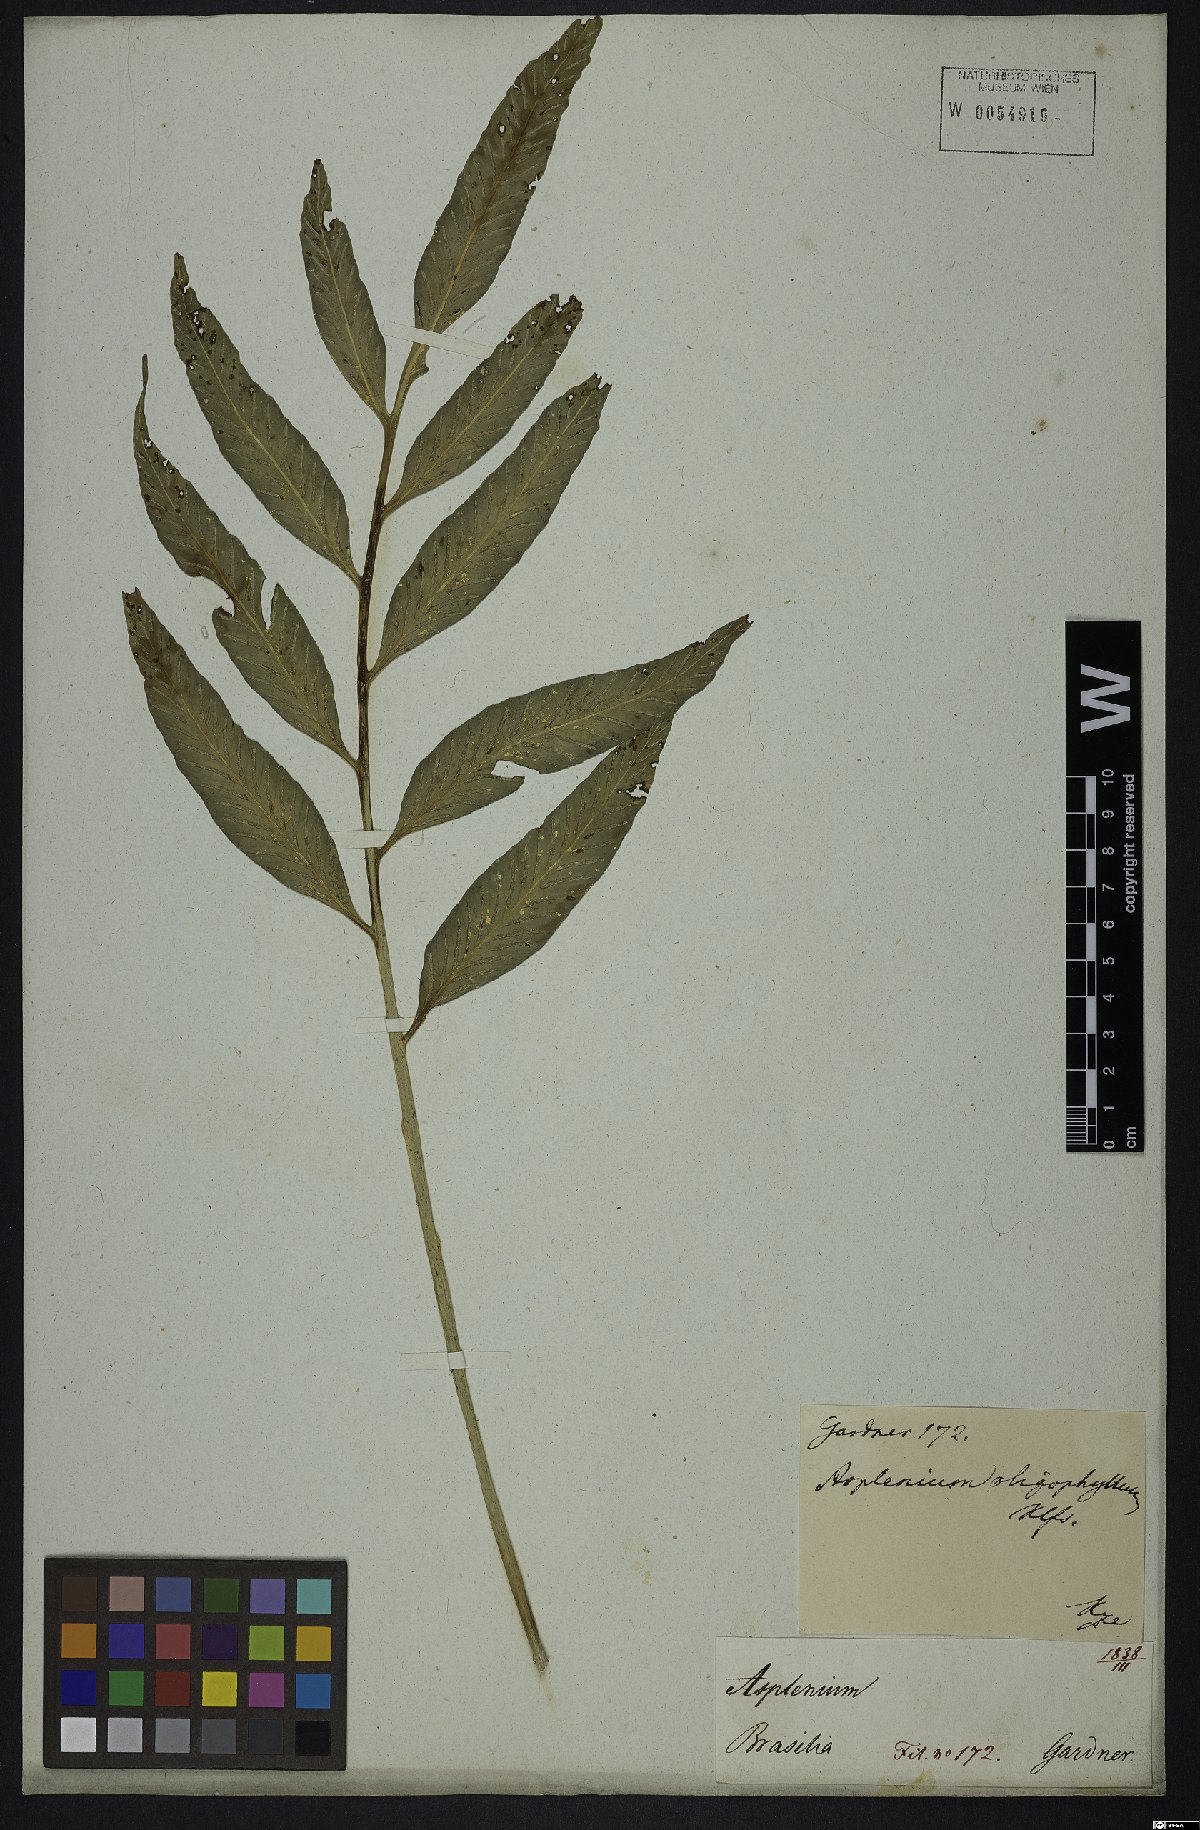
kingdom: Plantae
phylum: Tracheophyta
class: Polypodiopsida
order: Polypodiales
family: Aspleniaceae
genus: Asplenium
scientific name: Asplenium oligophyllum
